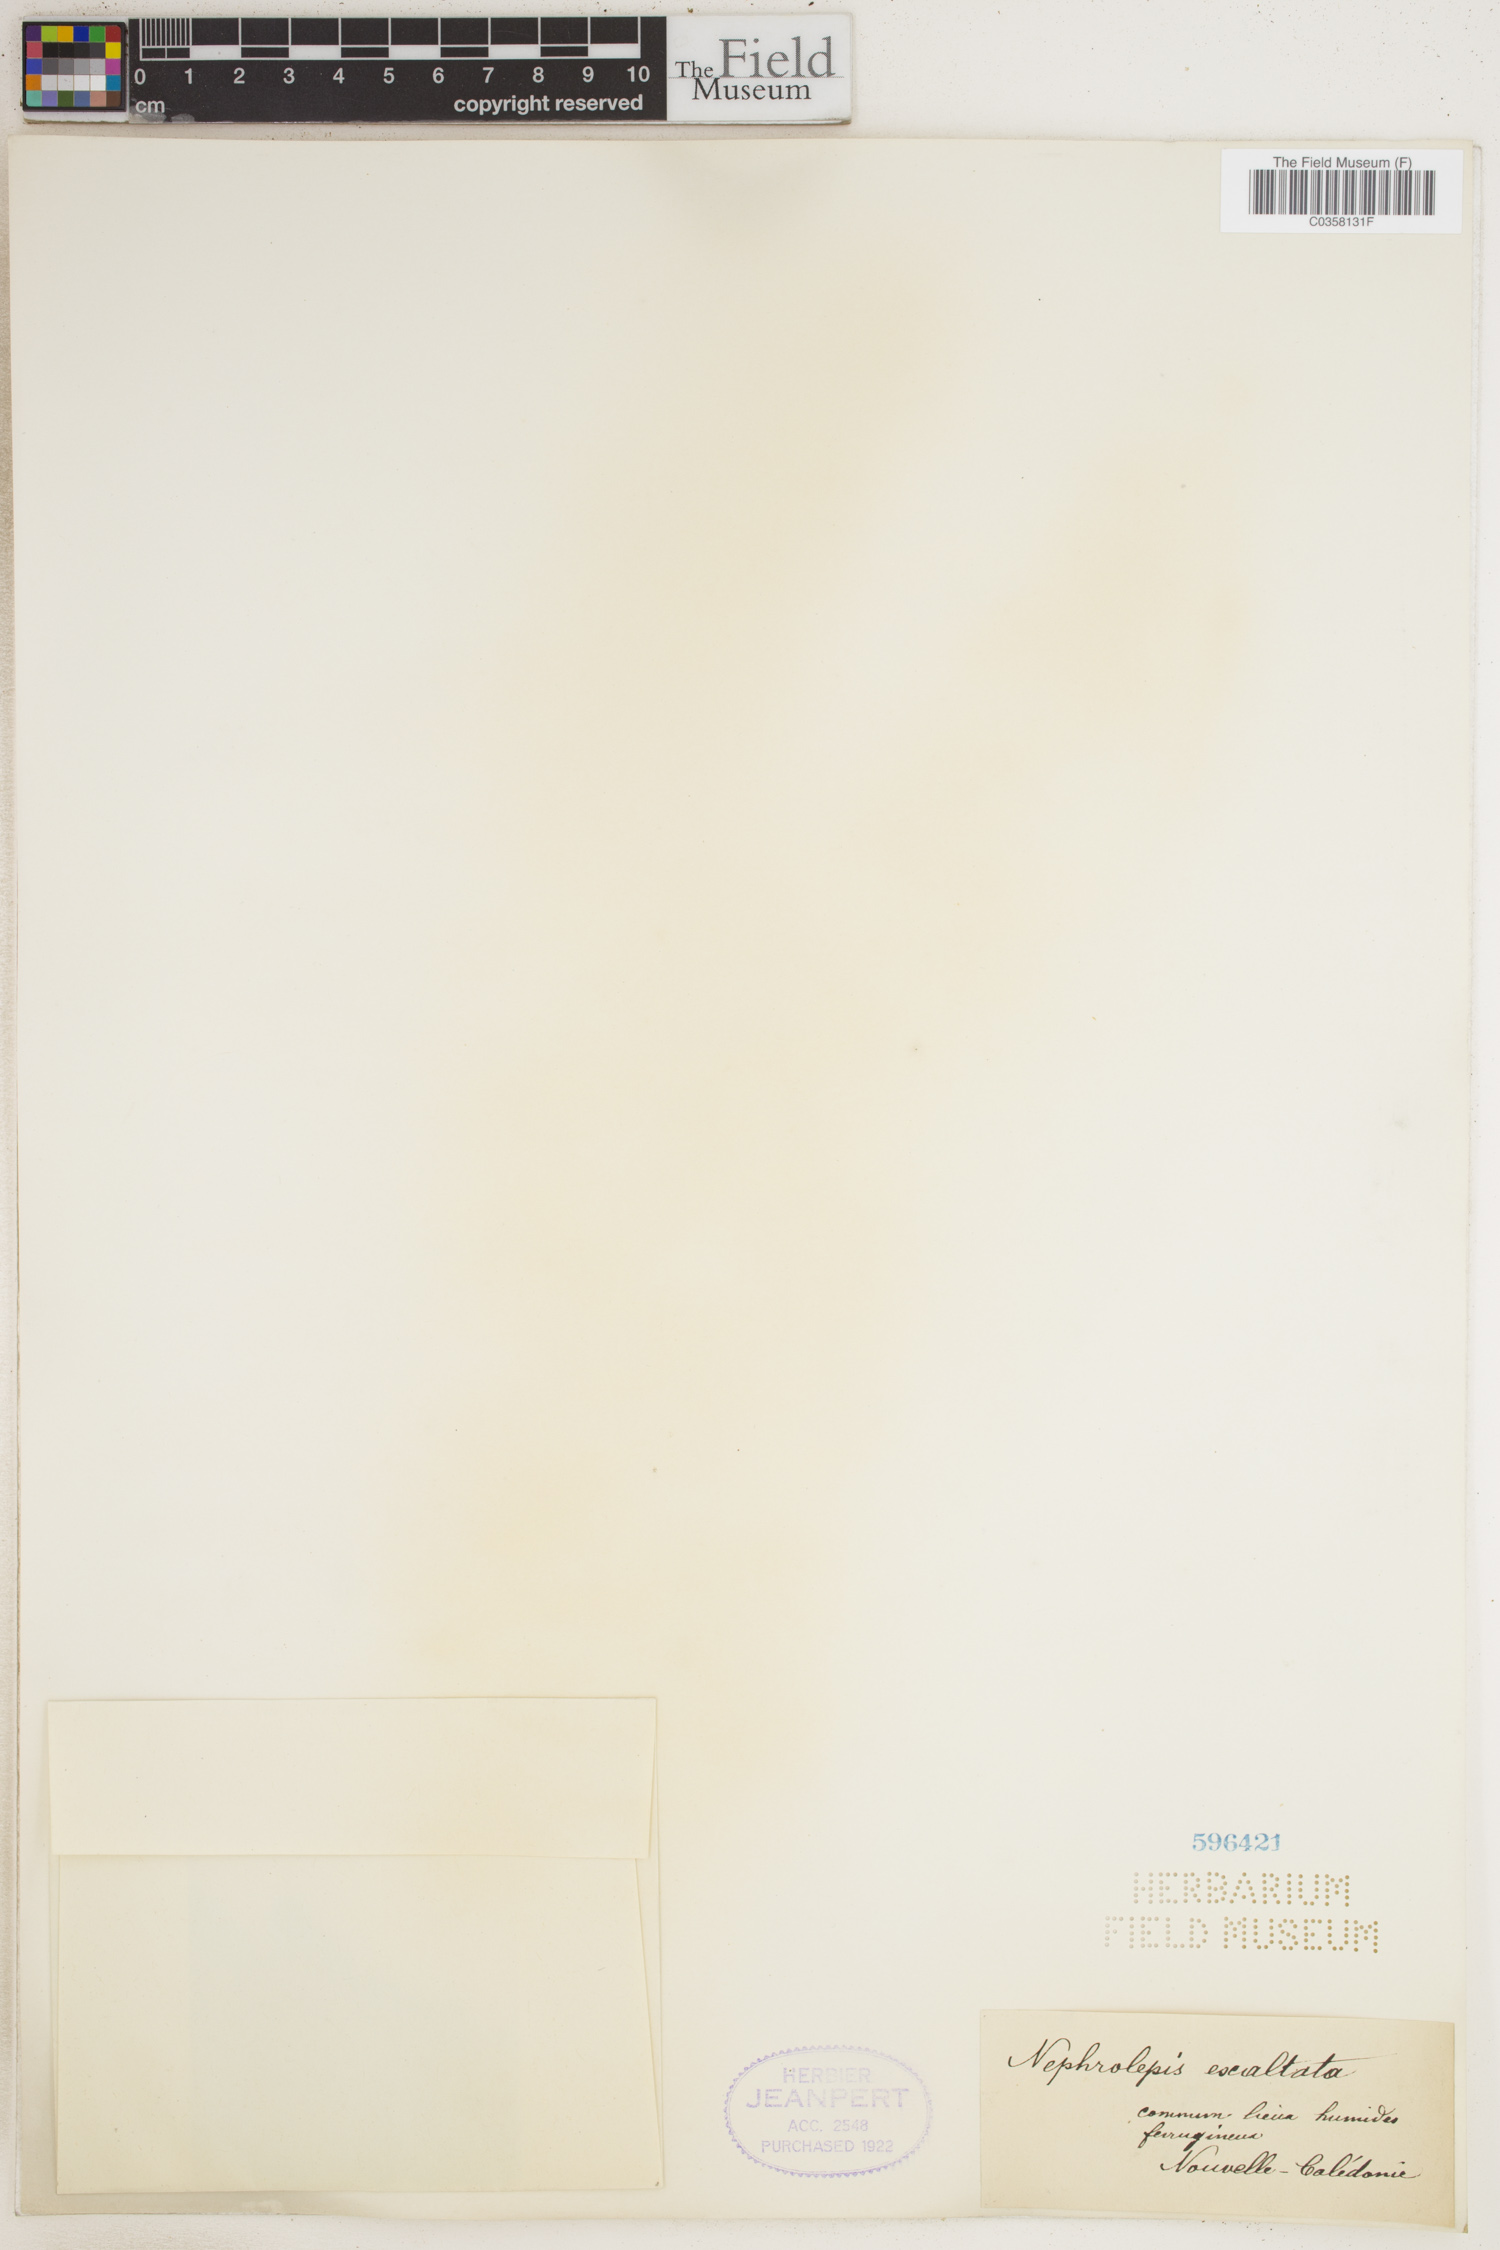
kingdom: Plantae
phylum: Tracheophyta
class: Polypodiopsida
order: Polypodiales
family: Nephrolepidaceae
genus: Nephrolepis
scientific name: Nephrolepis cordifolia
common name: Narrow swordfern
